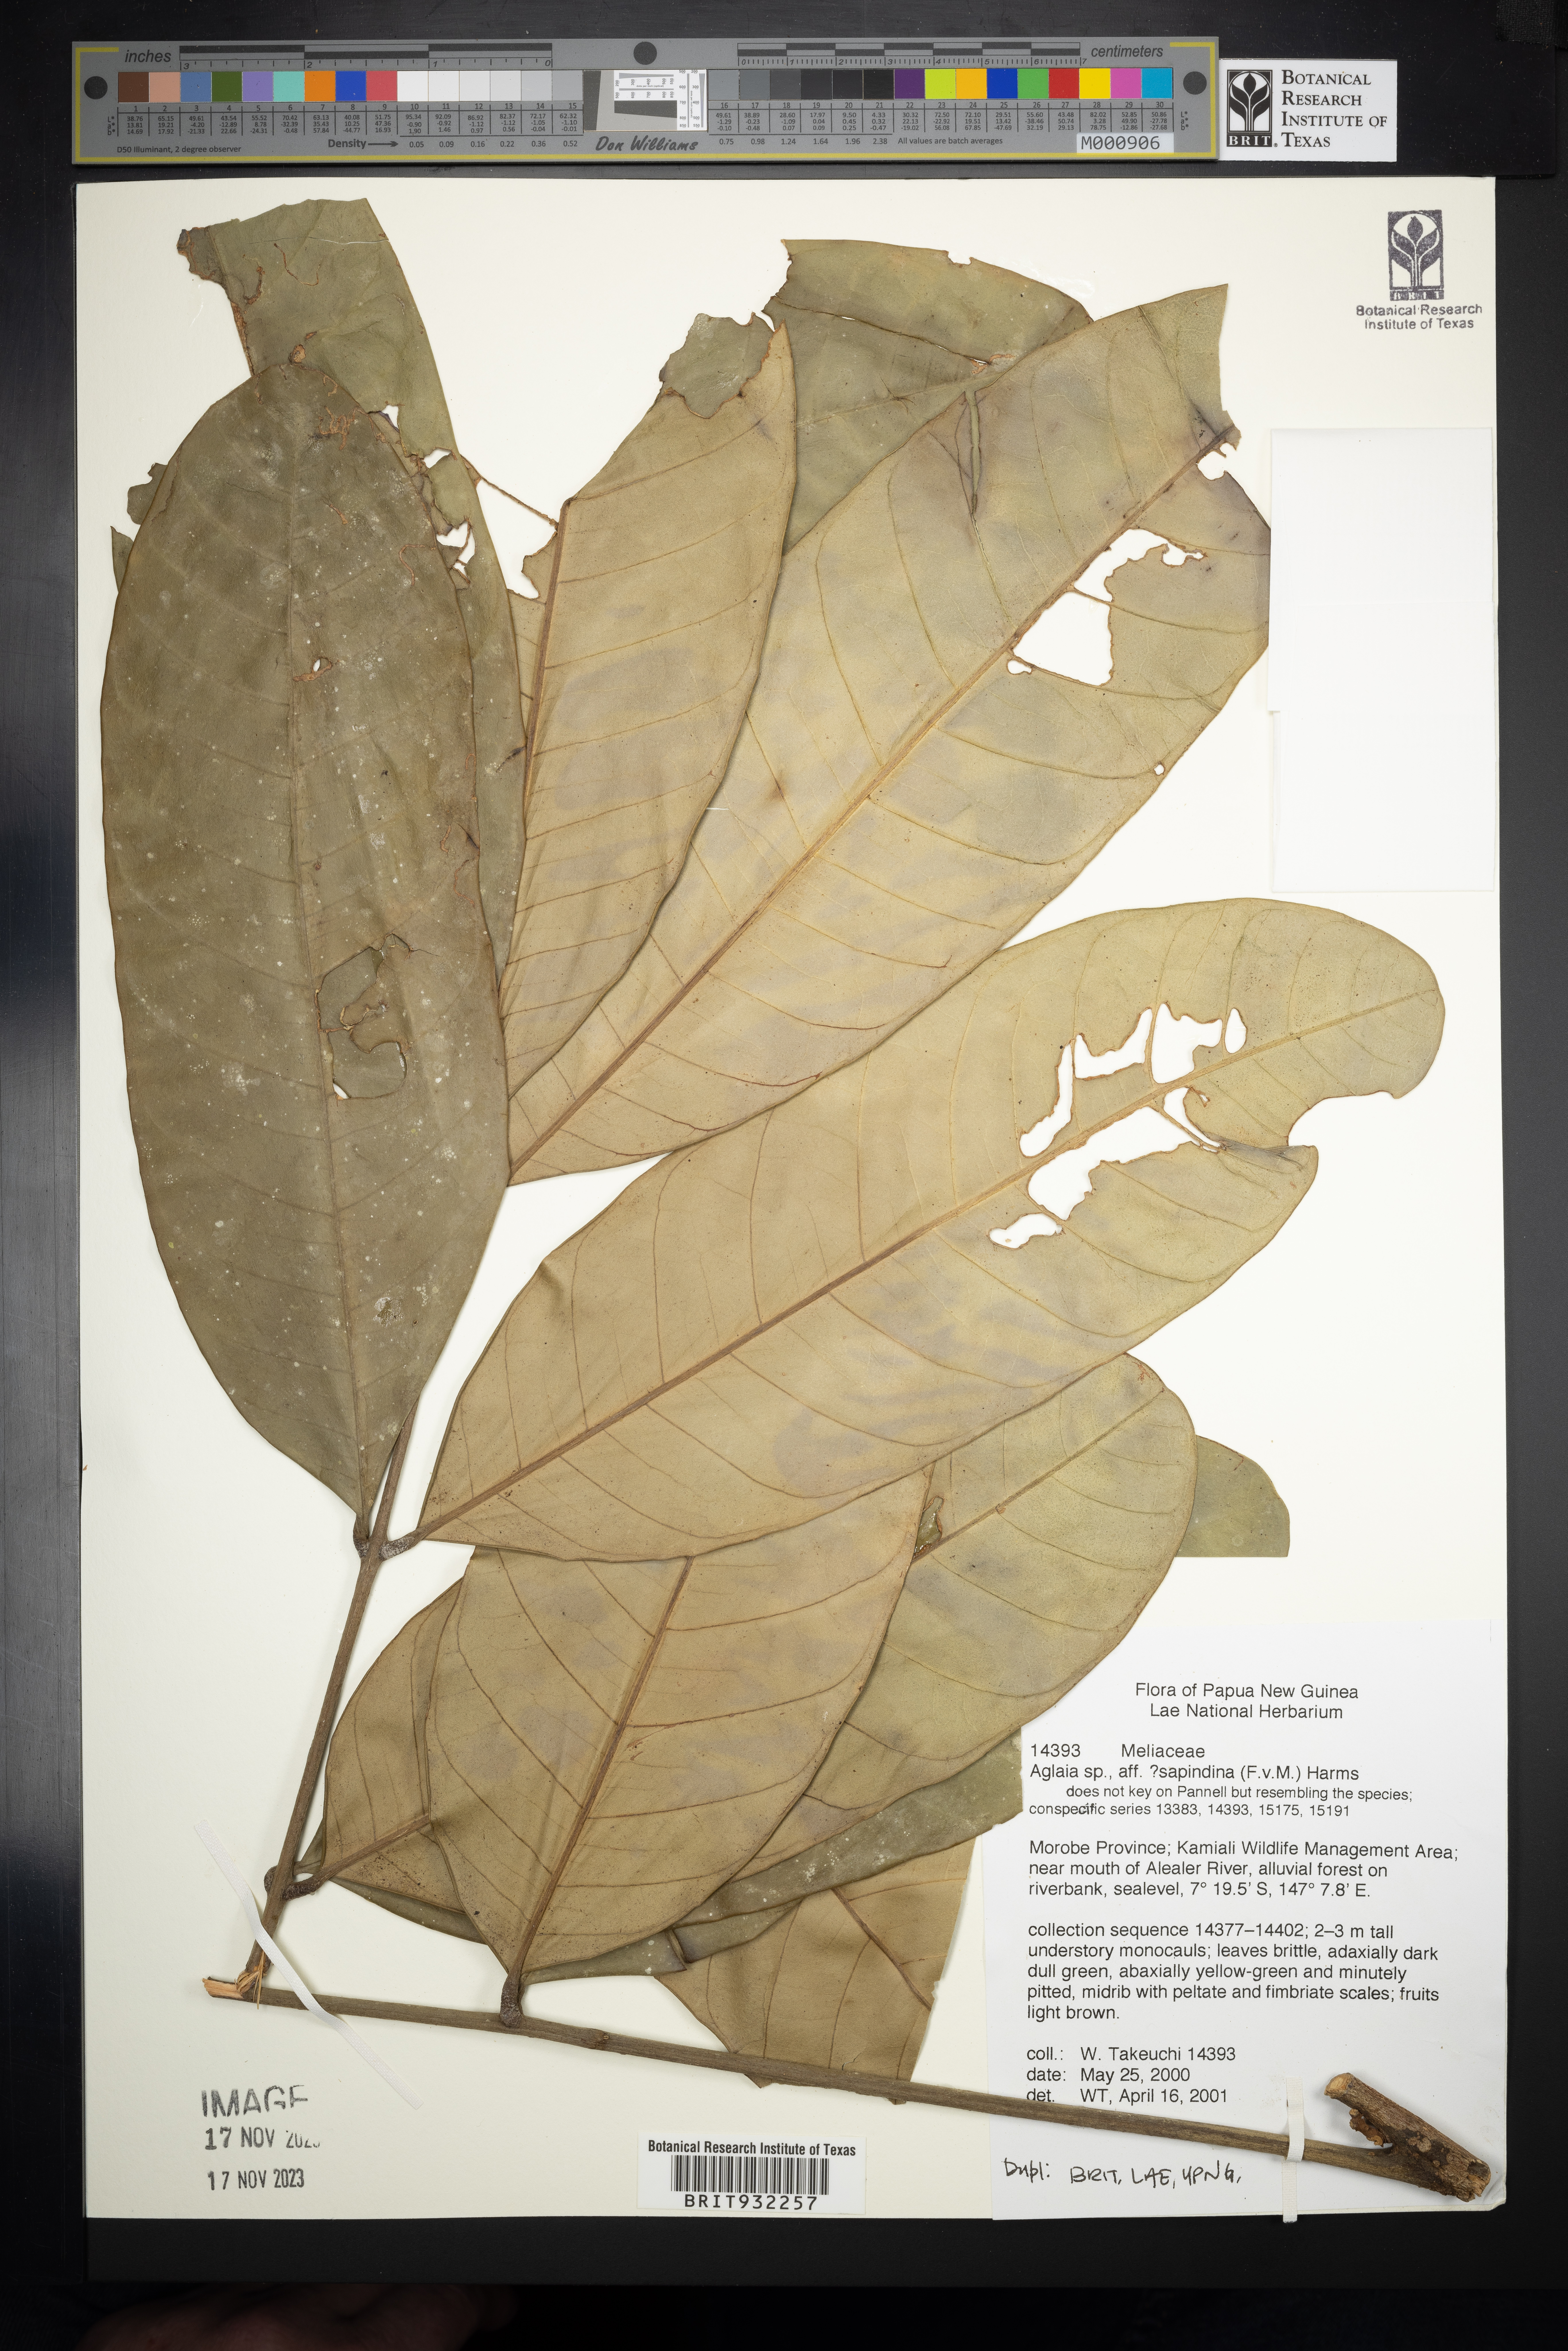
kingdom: Plantae
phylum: Tracheophyta
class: Magnoliopsida
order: Sapindales
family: Meliaceae
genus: Aglaia
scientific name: Aglaia
